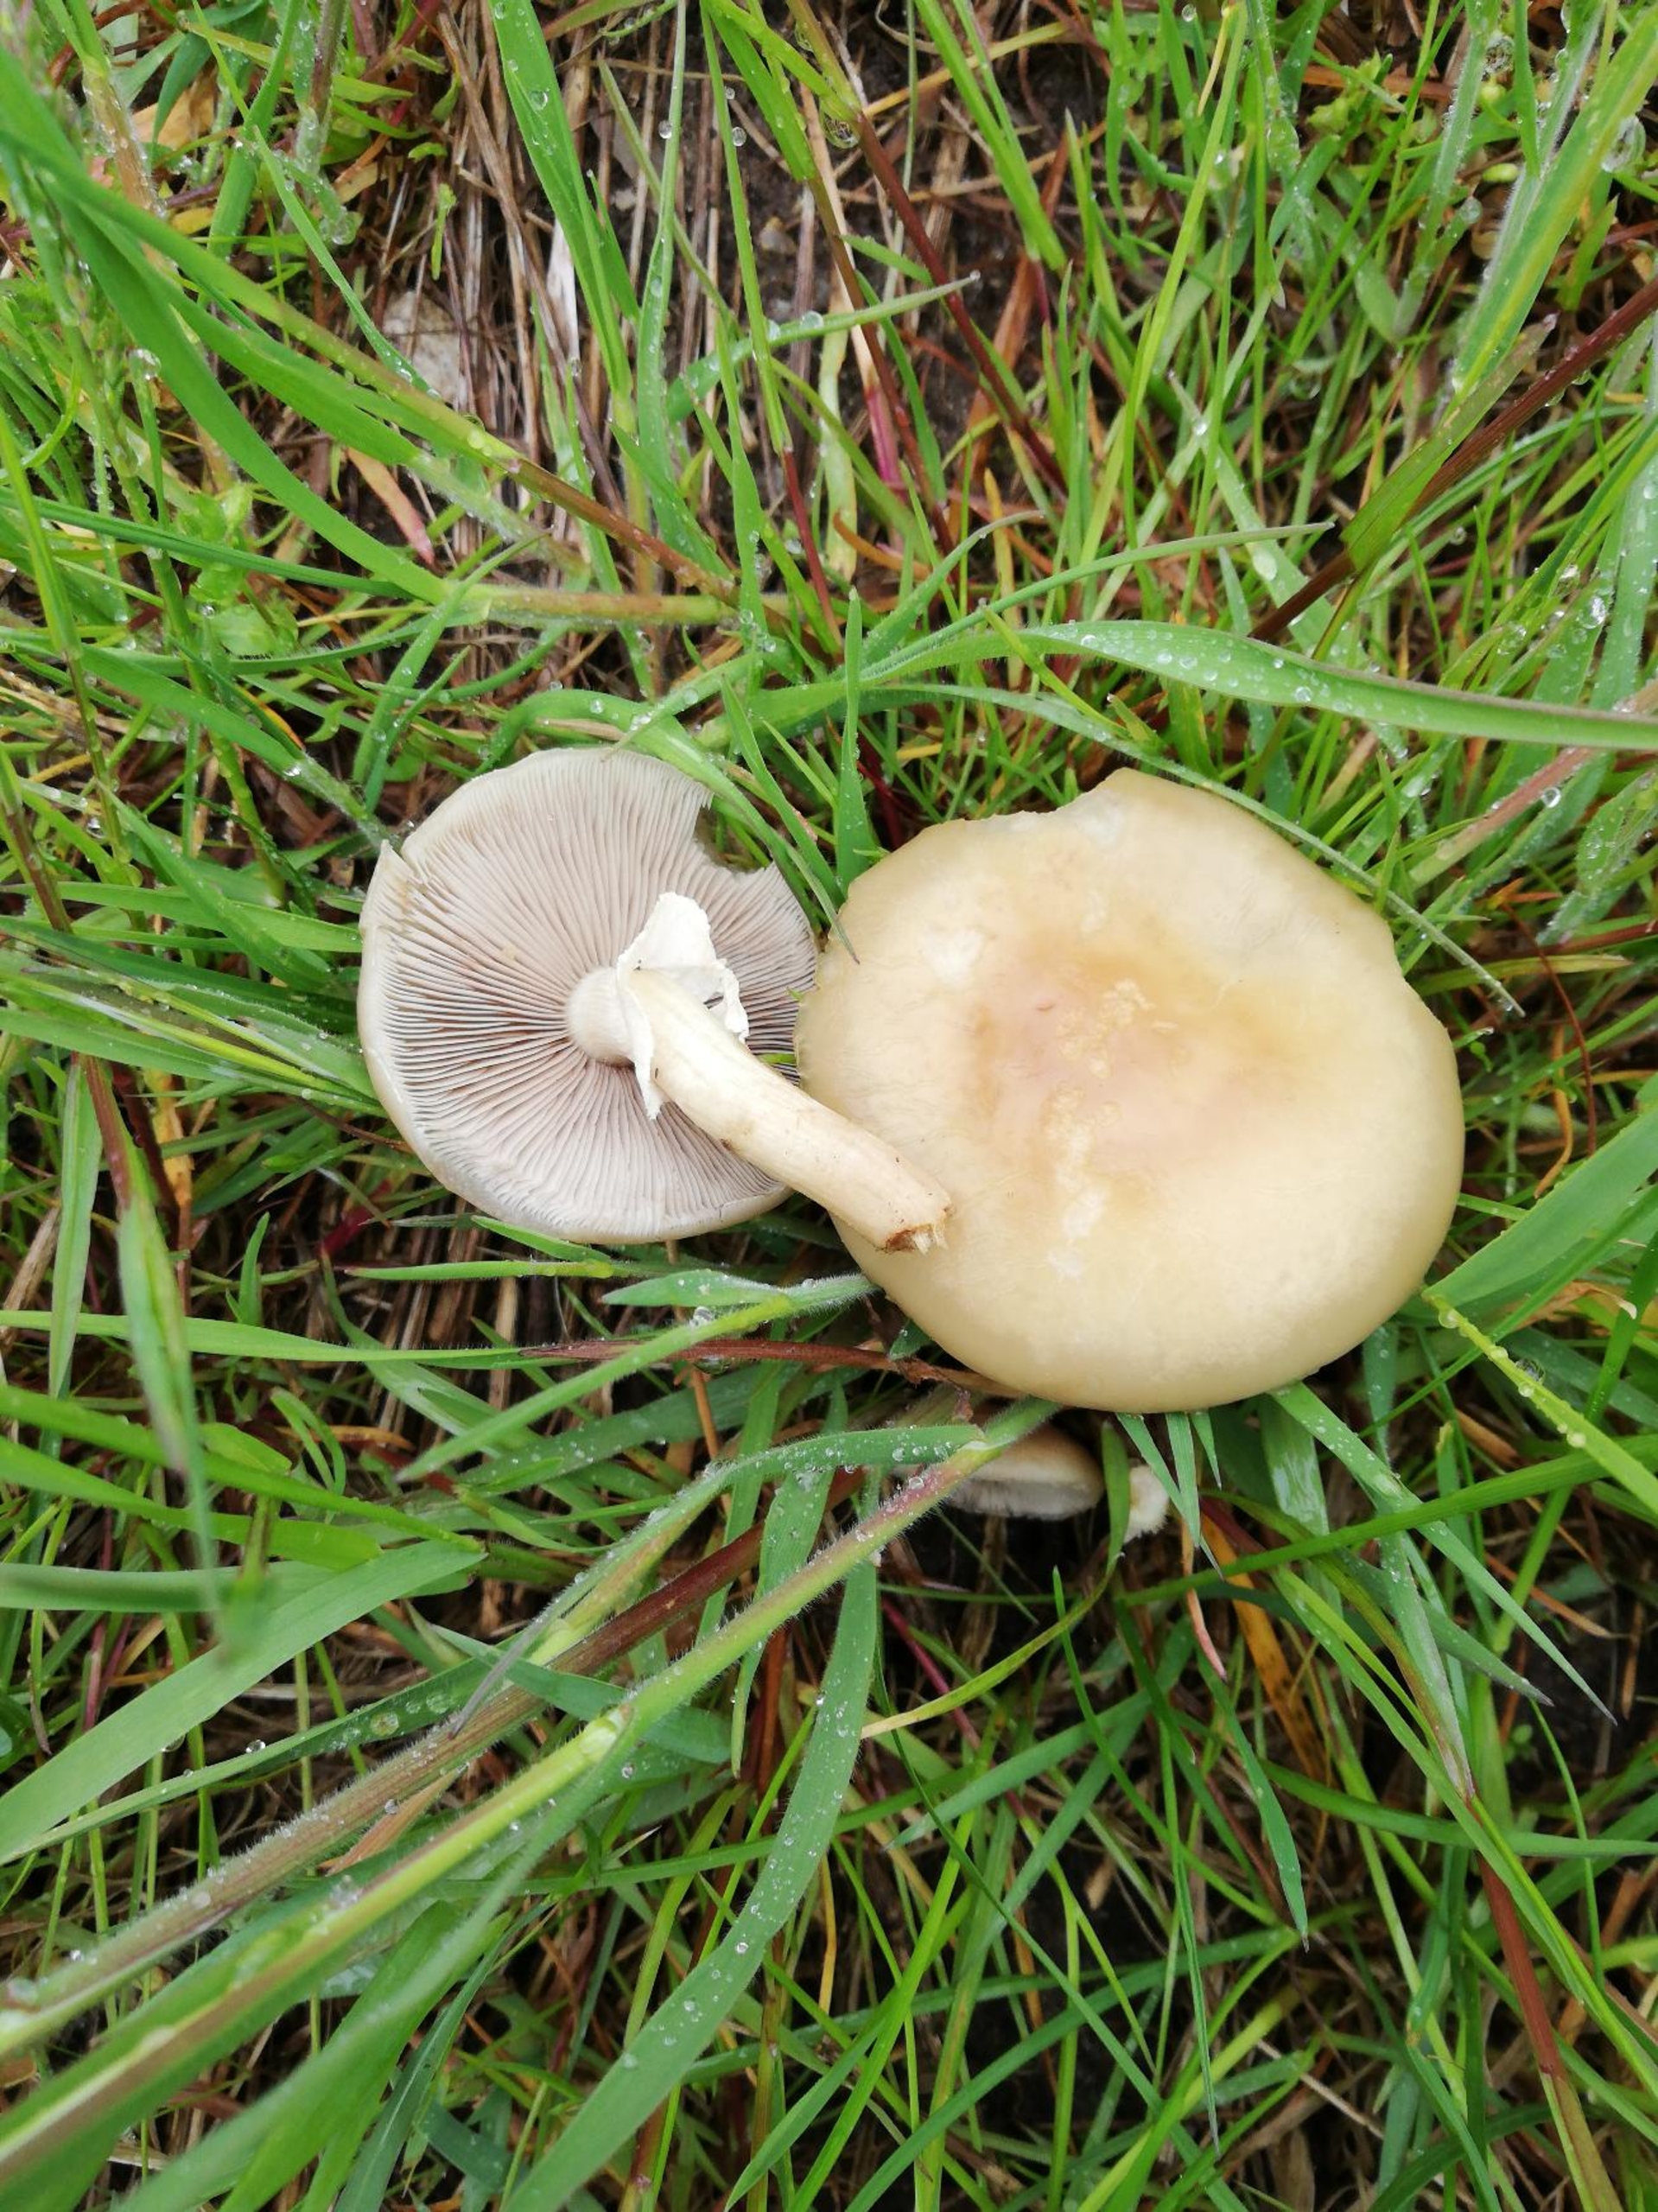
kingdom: Fungi
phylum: Basidiomycota
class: Agaricomycetes
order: Agaricales
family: Strophariaceae
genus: Agrocybe
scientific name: Agrocybe praecox
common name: Tidlig agerhat
